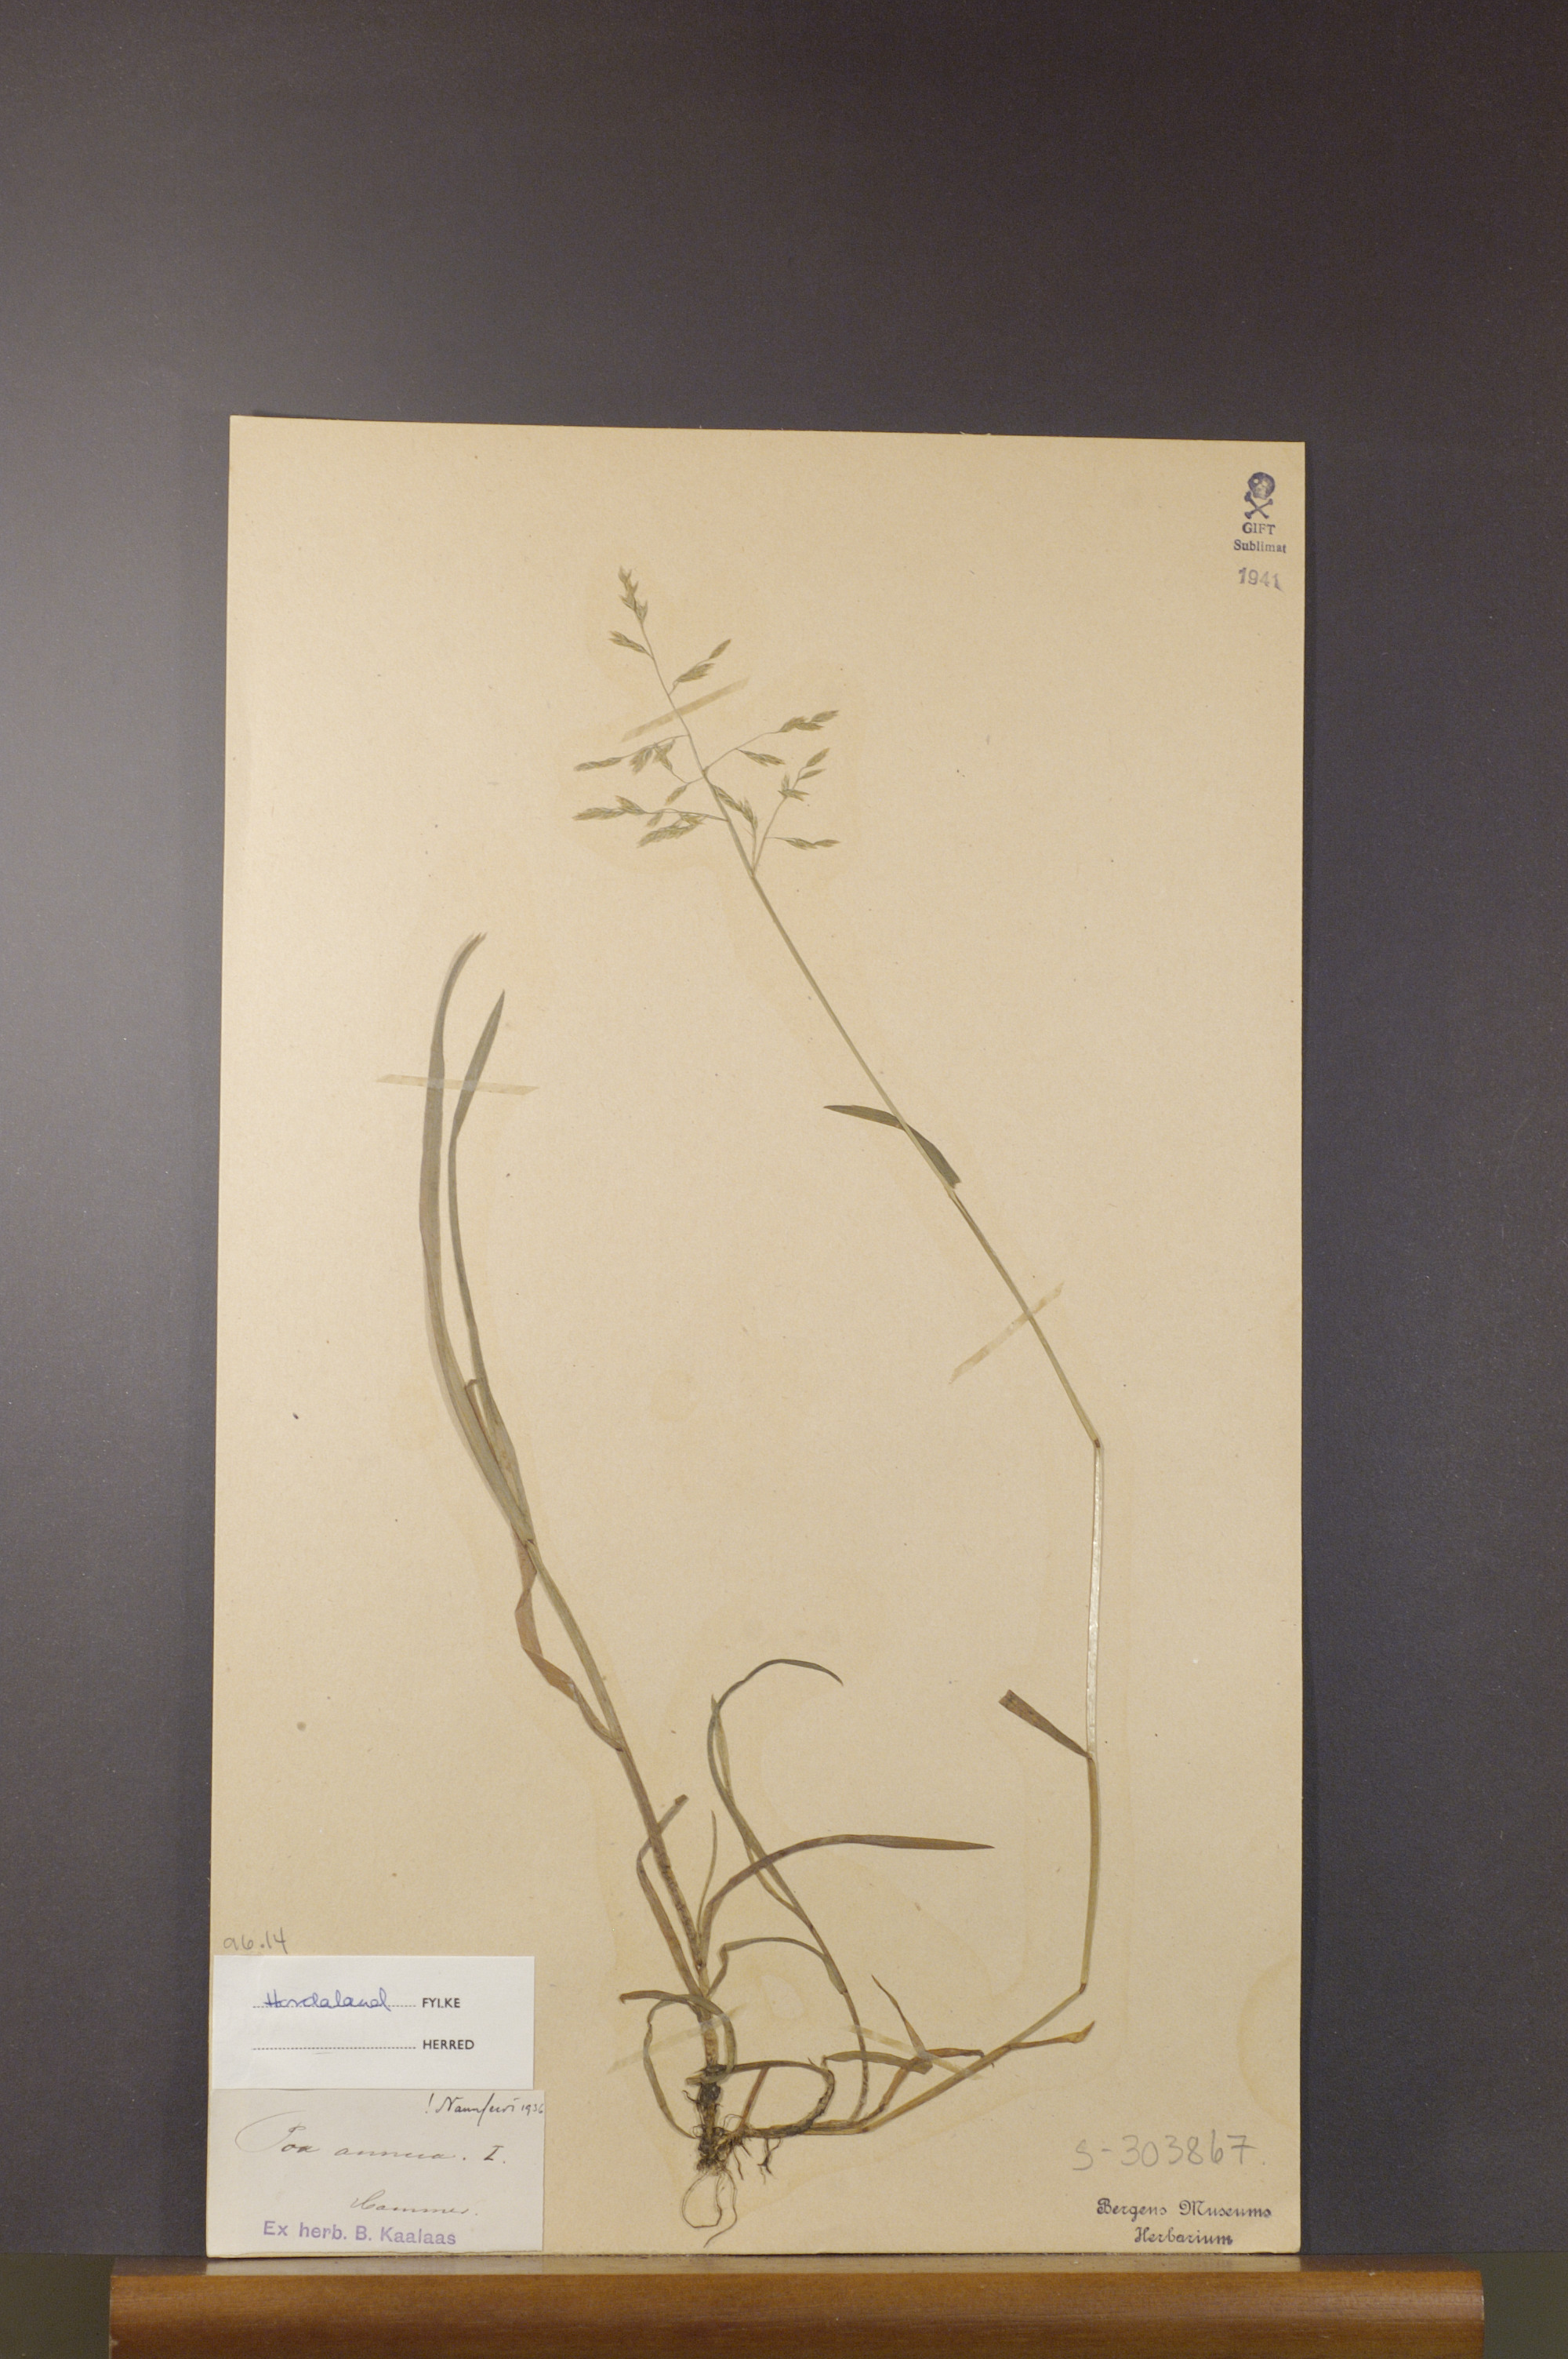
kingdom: Plantae
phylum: Tracheophyta
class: Liliopsida
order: Poales
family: Poaceae
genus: Poa
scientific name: Poa annua
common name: Annual bluegrass
